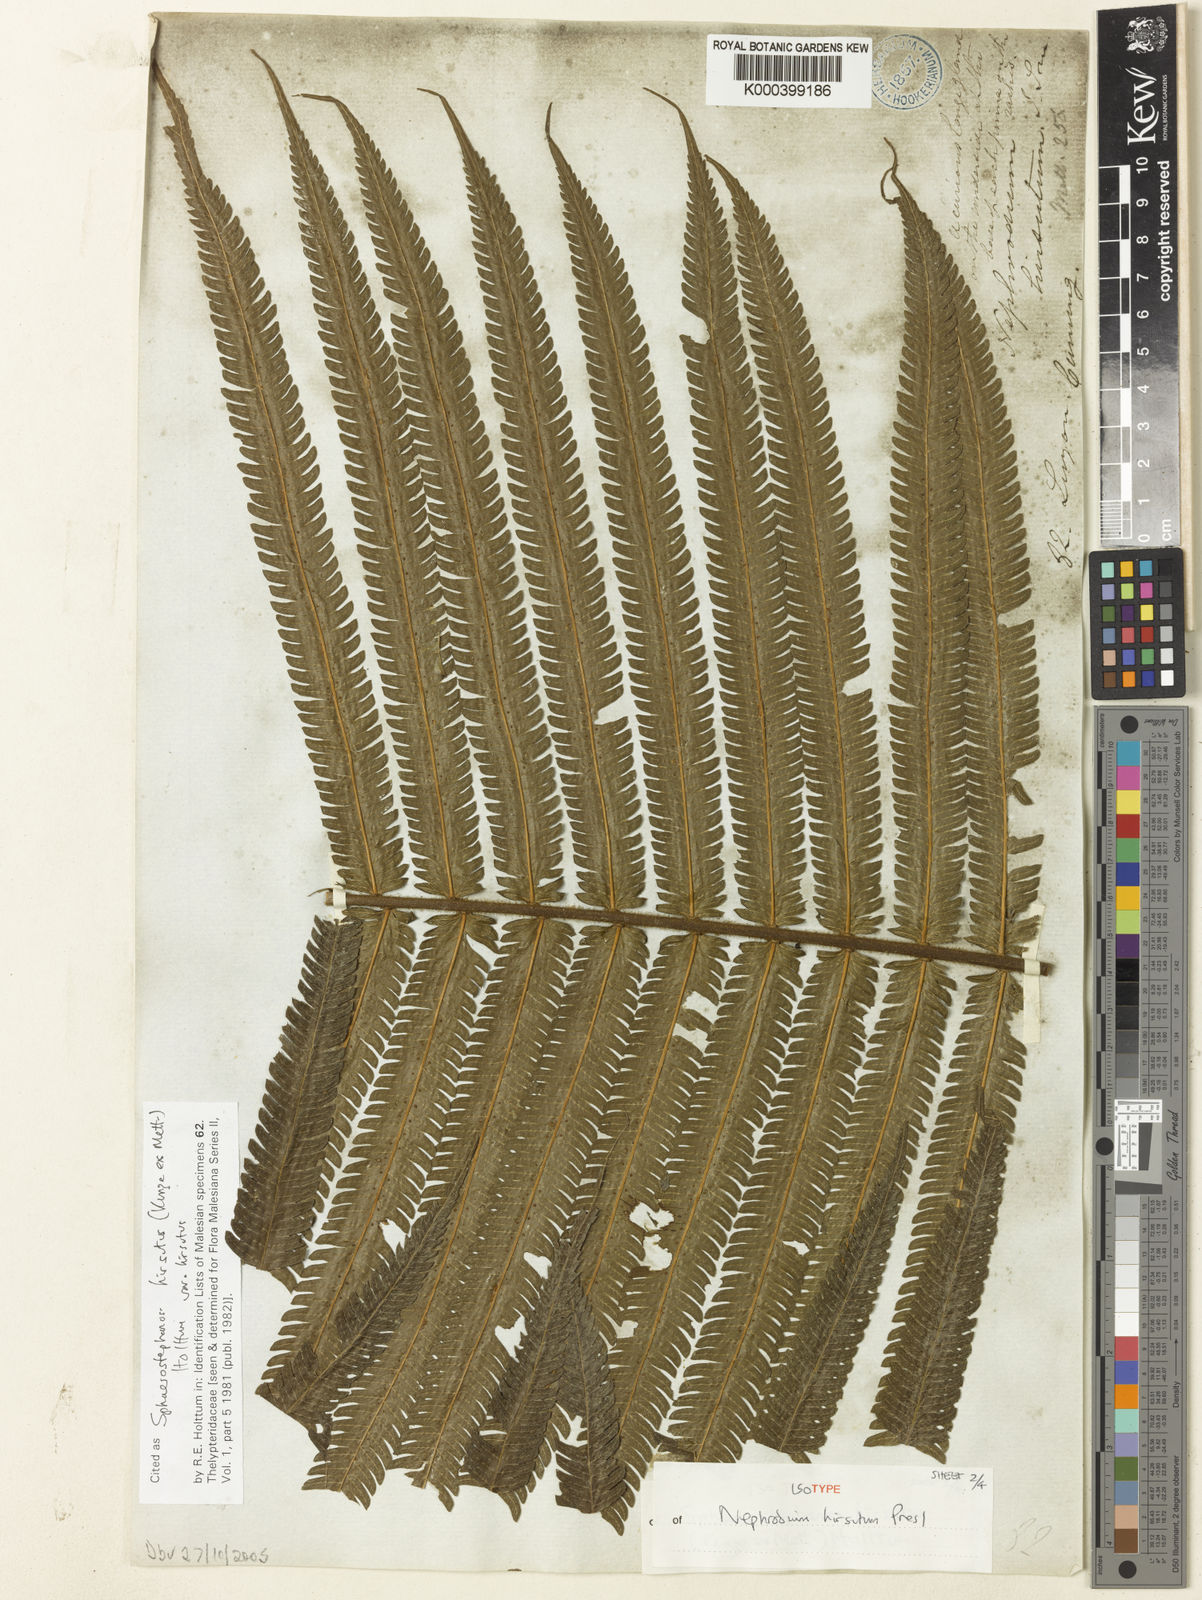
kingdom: Plantae
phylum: Tracheophyta
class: Polypodiopsida
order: Polypodiales
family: Thelypteridaceae
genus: Sphaerostephanos
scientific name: Sphaerostephanos hirsutus
